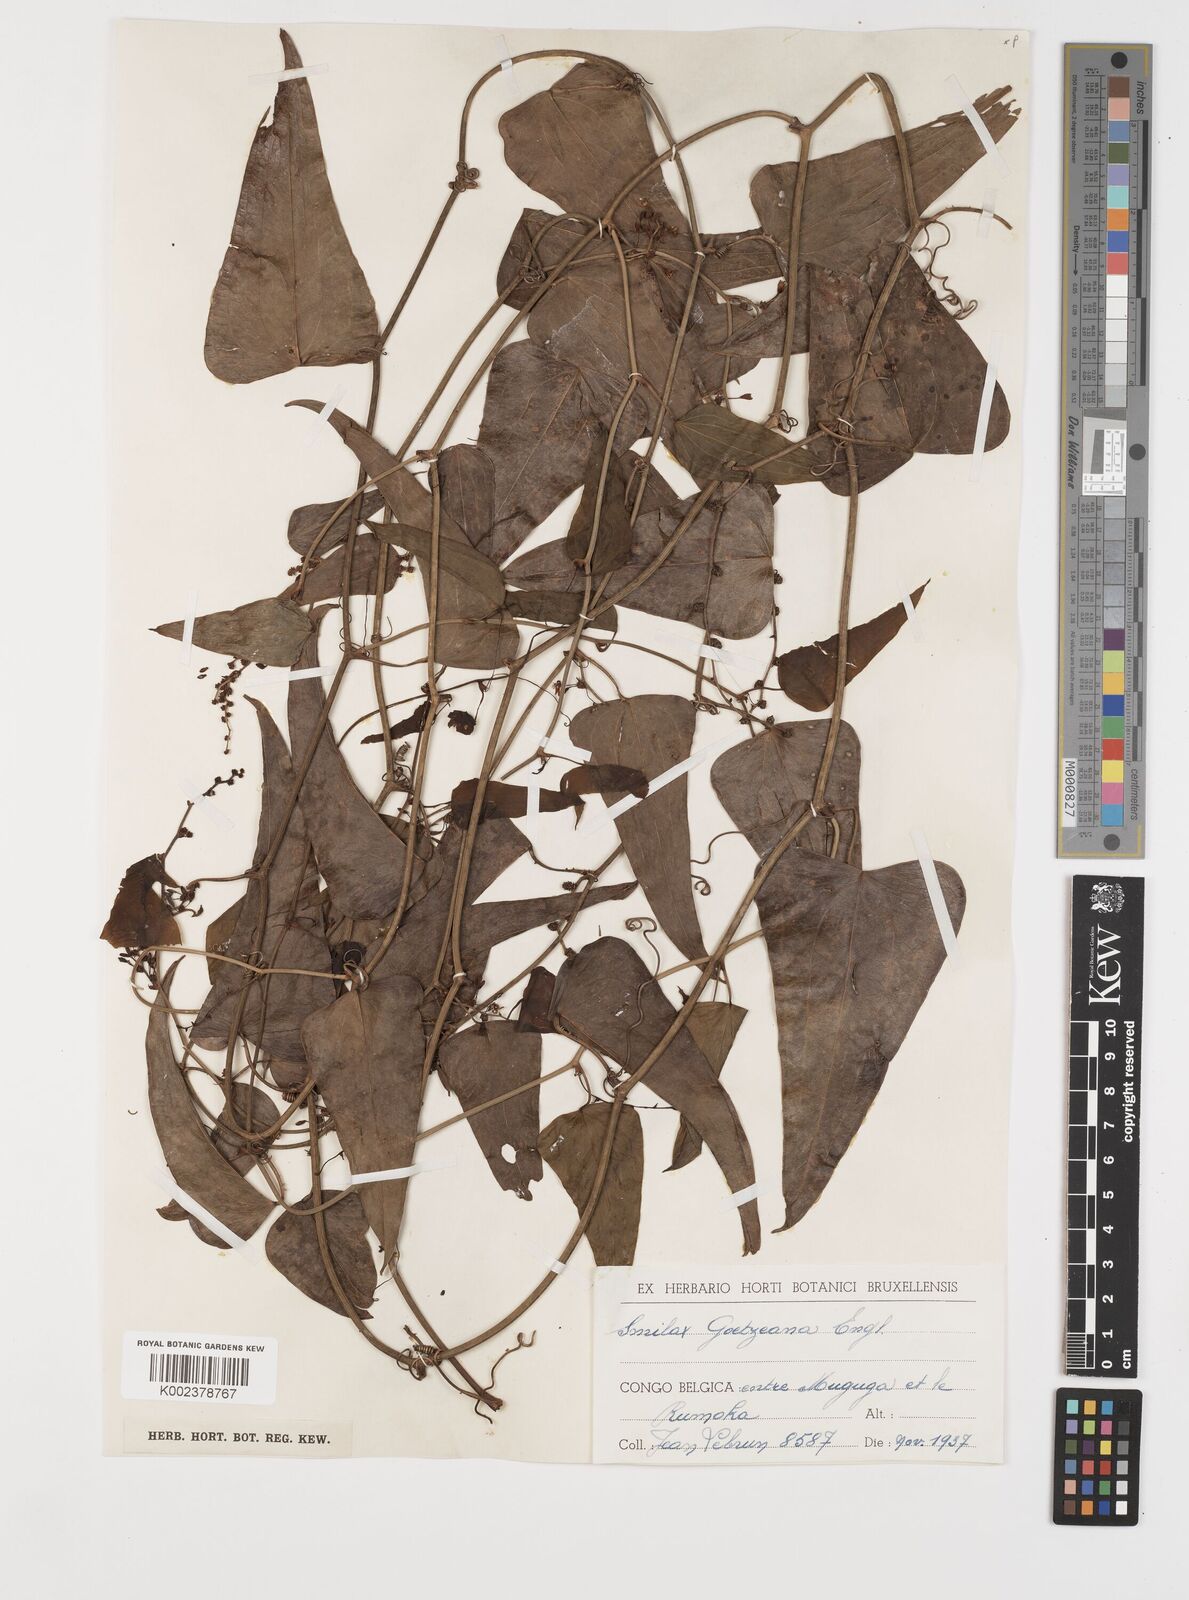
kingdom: Plantae
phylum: Tracheophyta
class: Liliopsida
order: Liliales
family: Smilacaceae
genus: Smilax
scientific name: Smilax aspera
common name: Common smilax
